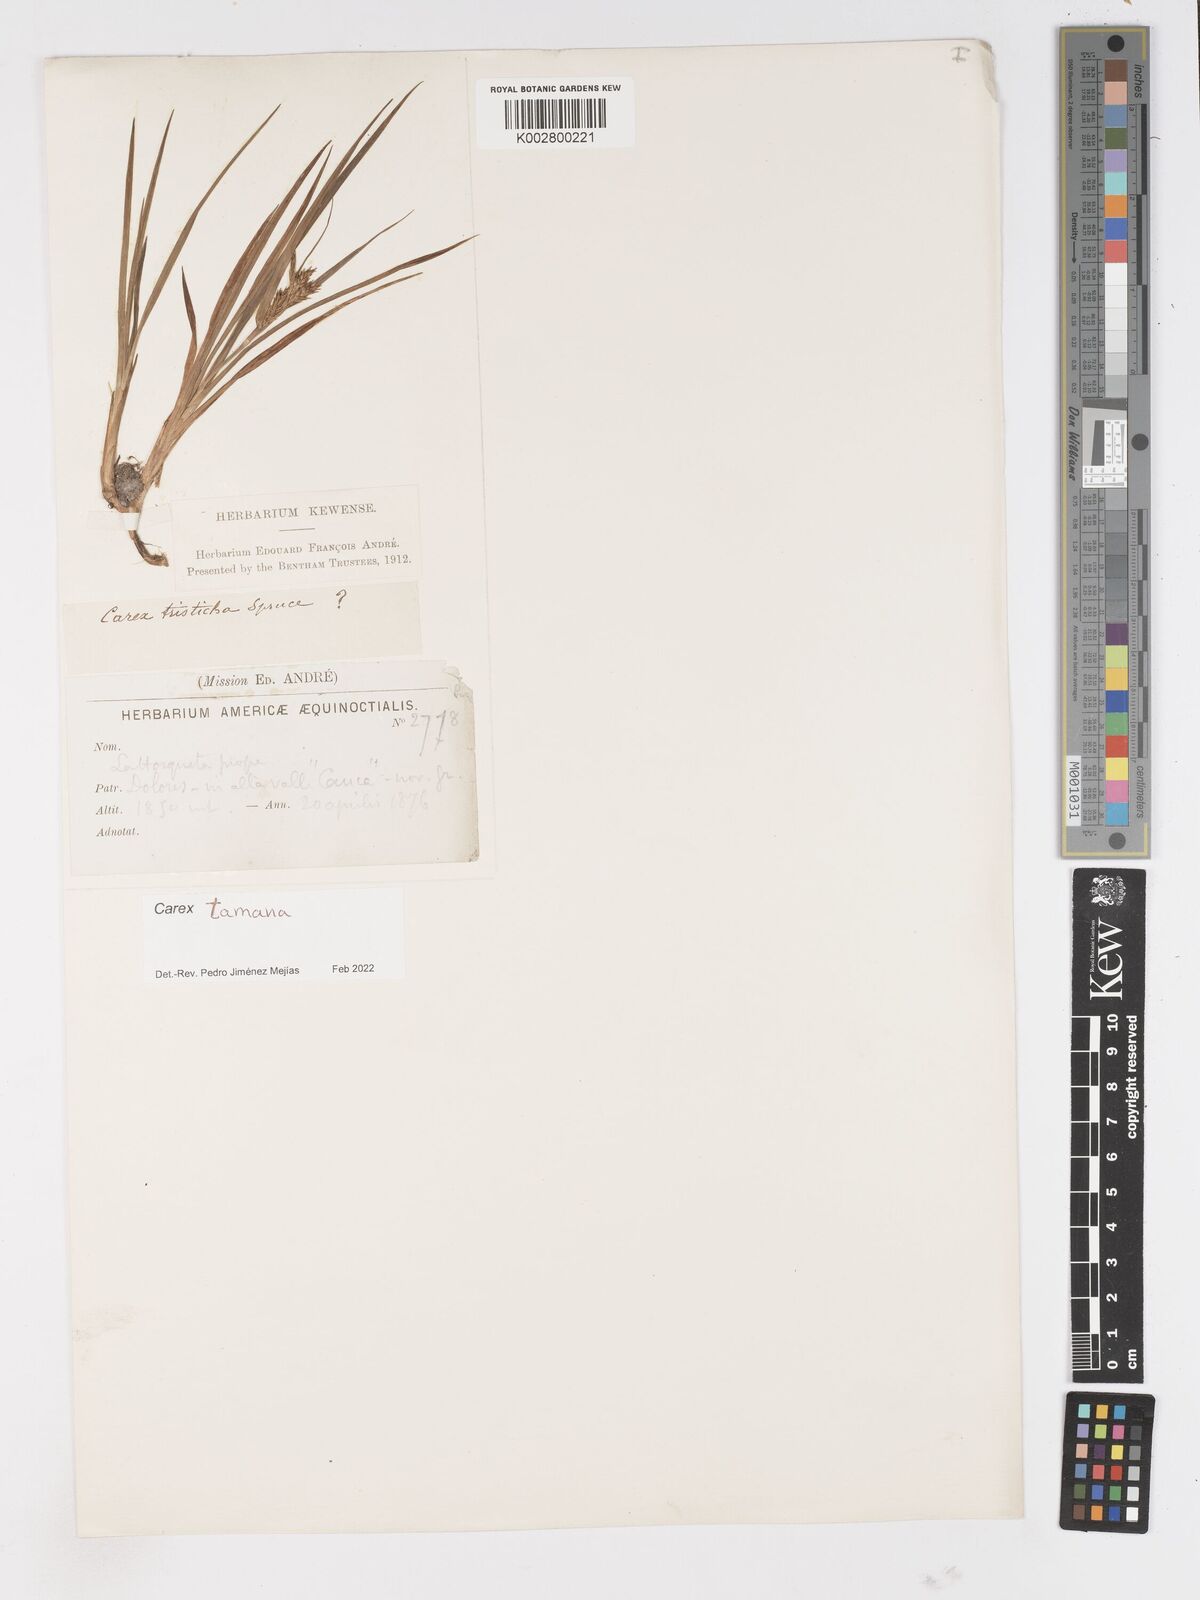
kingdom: Plantae
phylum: Tracheophyta
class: Liliopsida
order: Poales
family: Cyperaceae
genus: Carex
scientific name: Carex tamana
